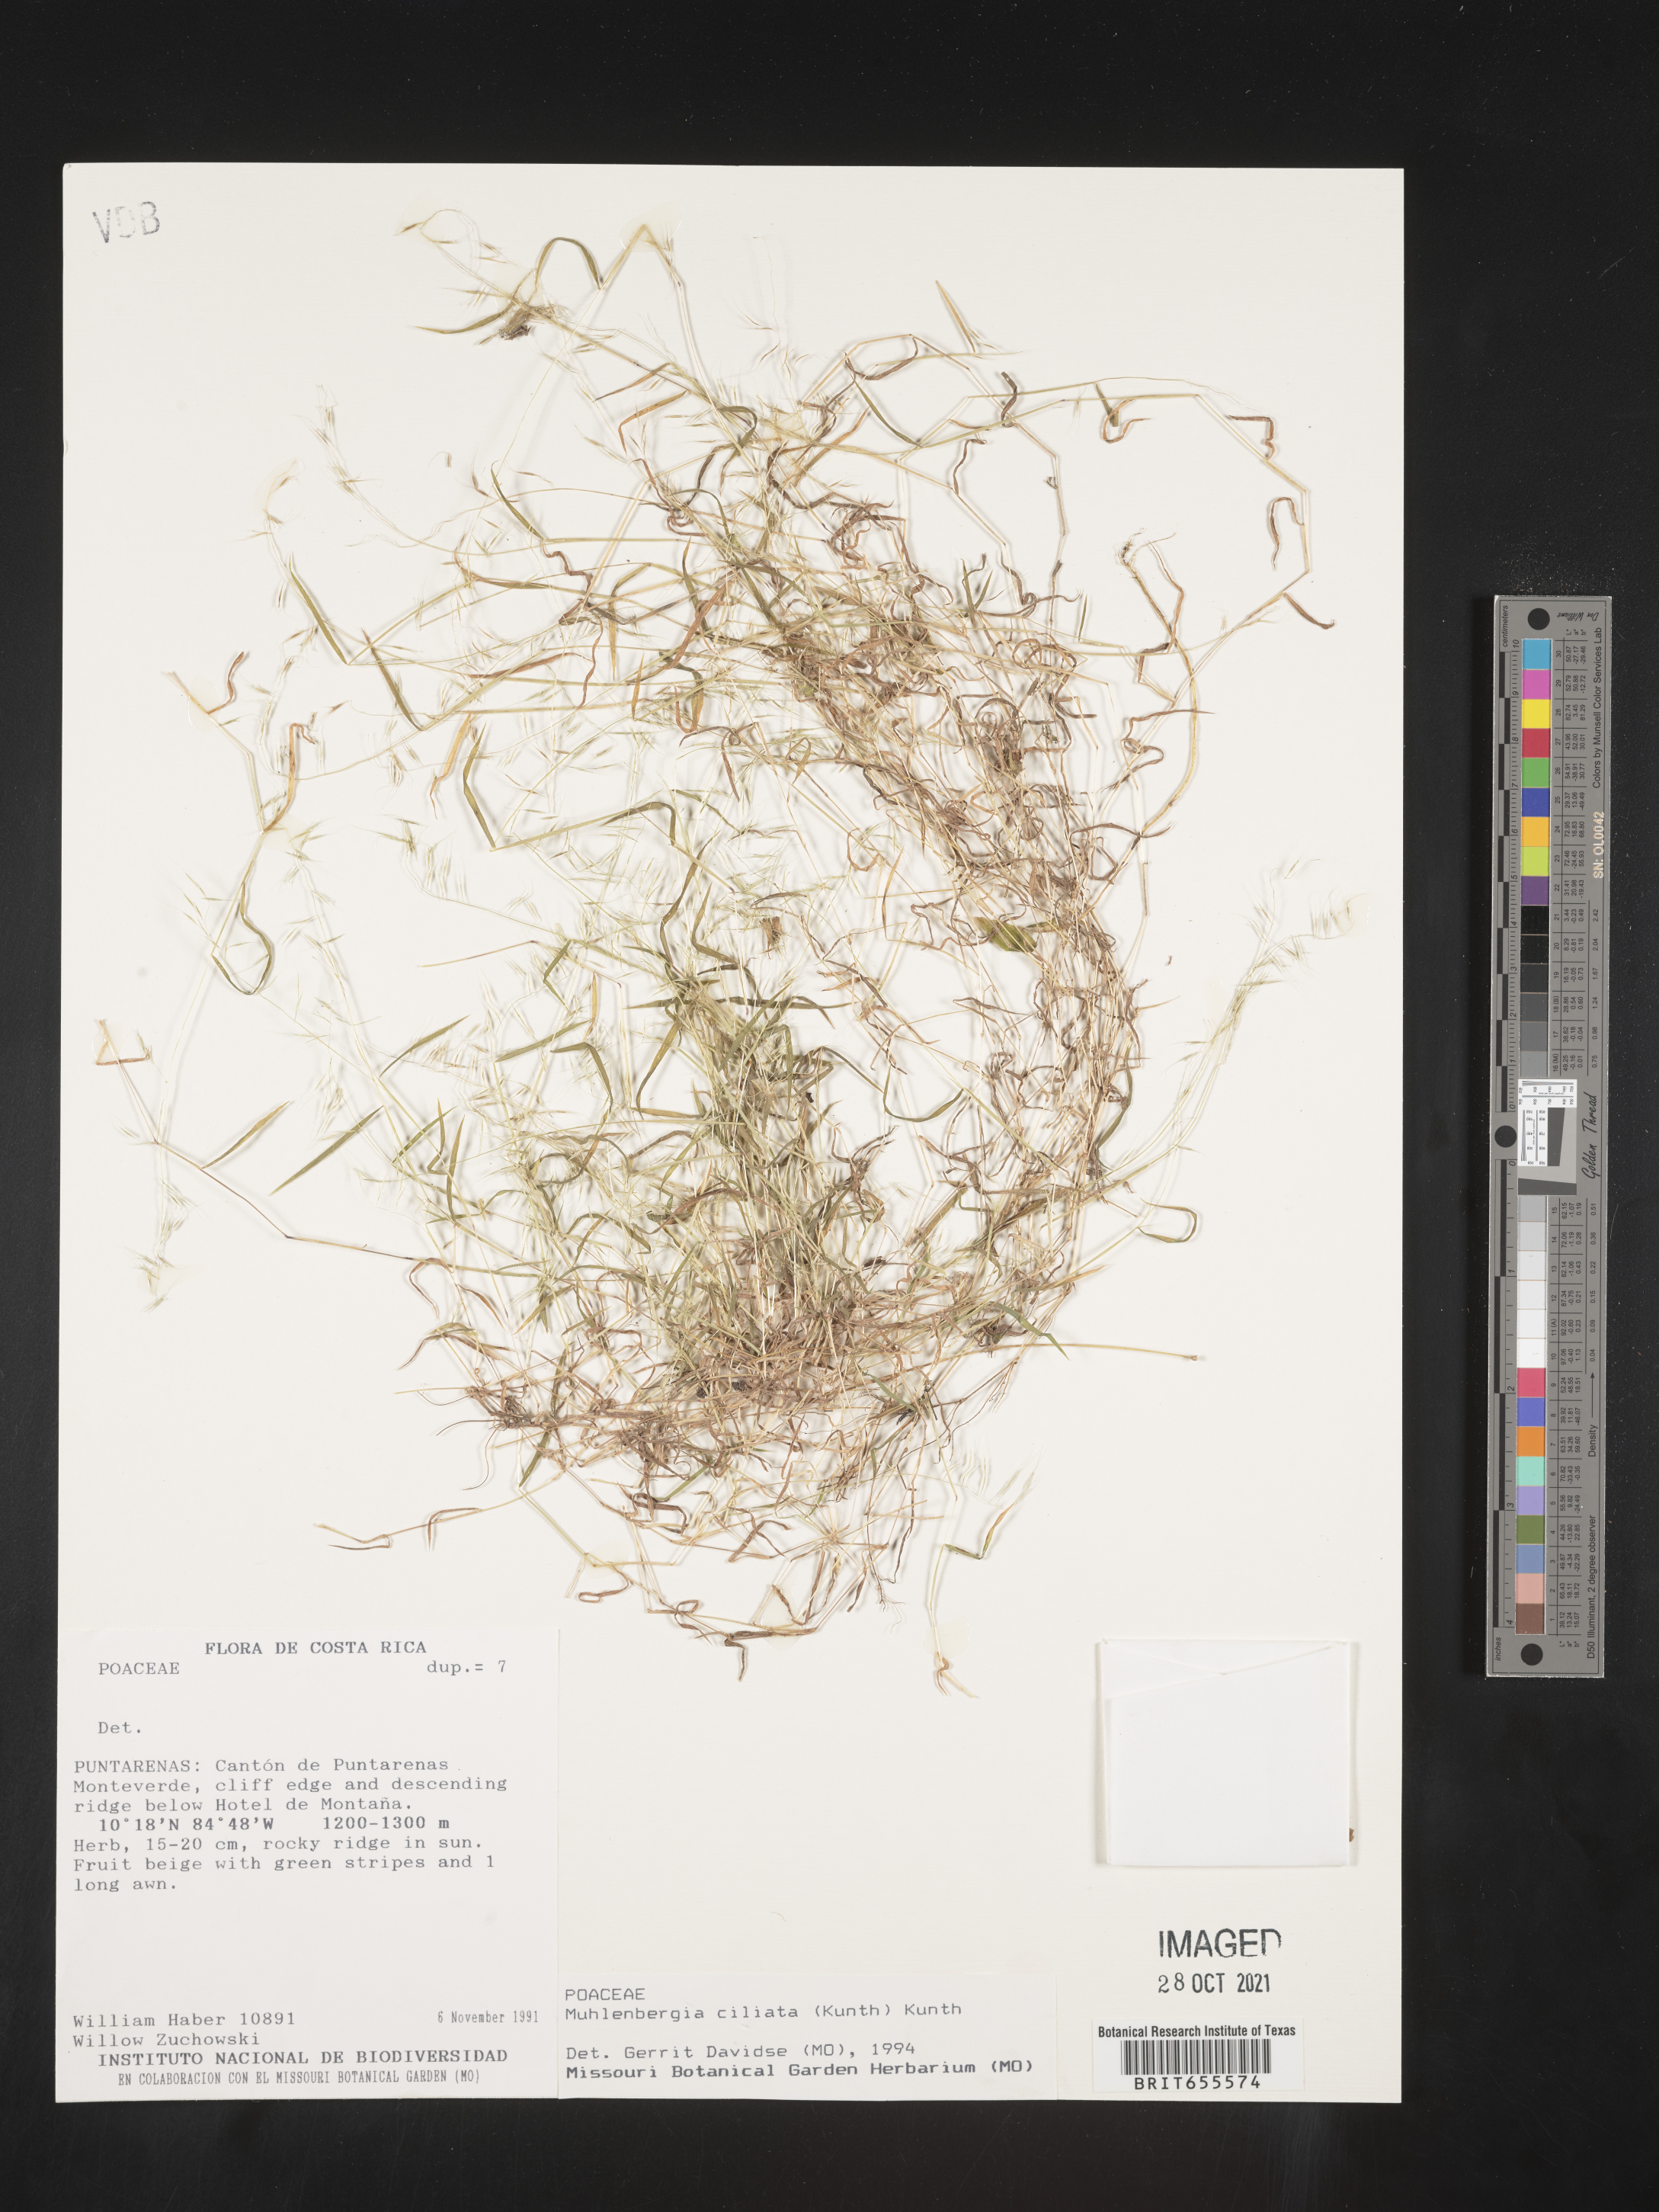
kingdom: Plantae
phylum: Tracheophyta
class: Liliopsida
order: Poales
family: Poaceae
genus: Muhlenbergia
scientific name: Muhlenbergia
